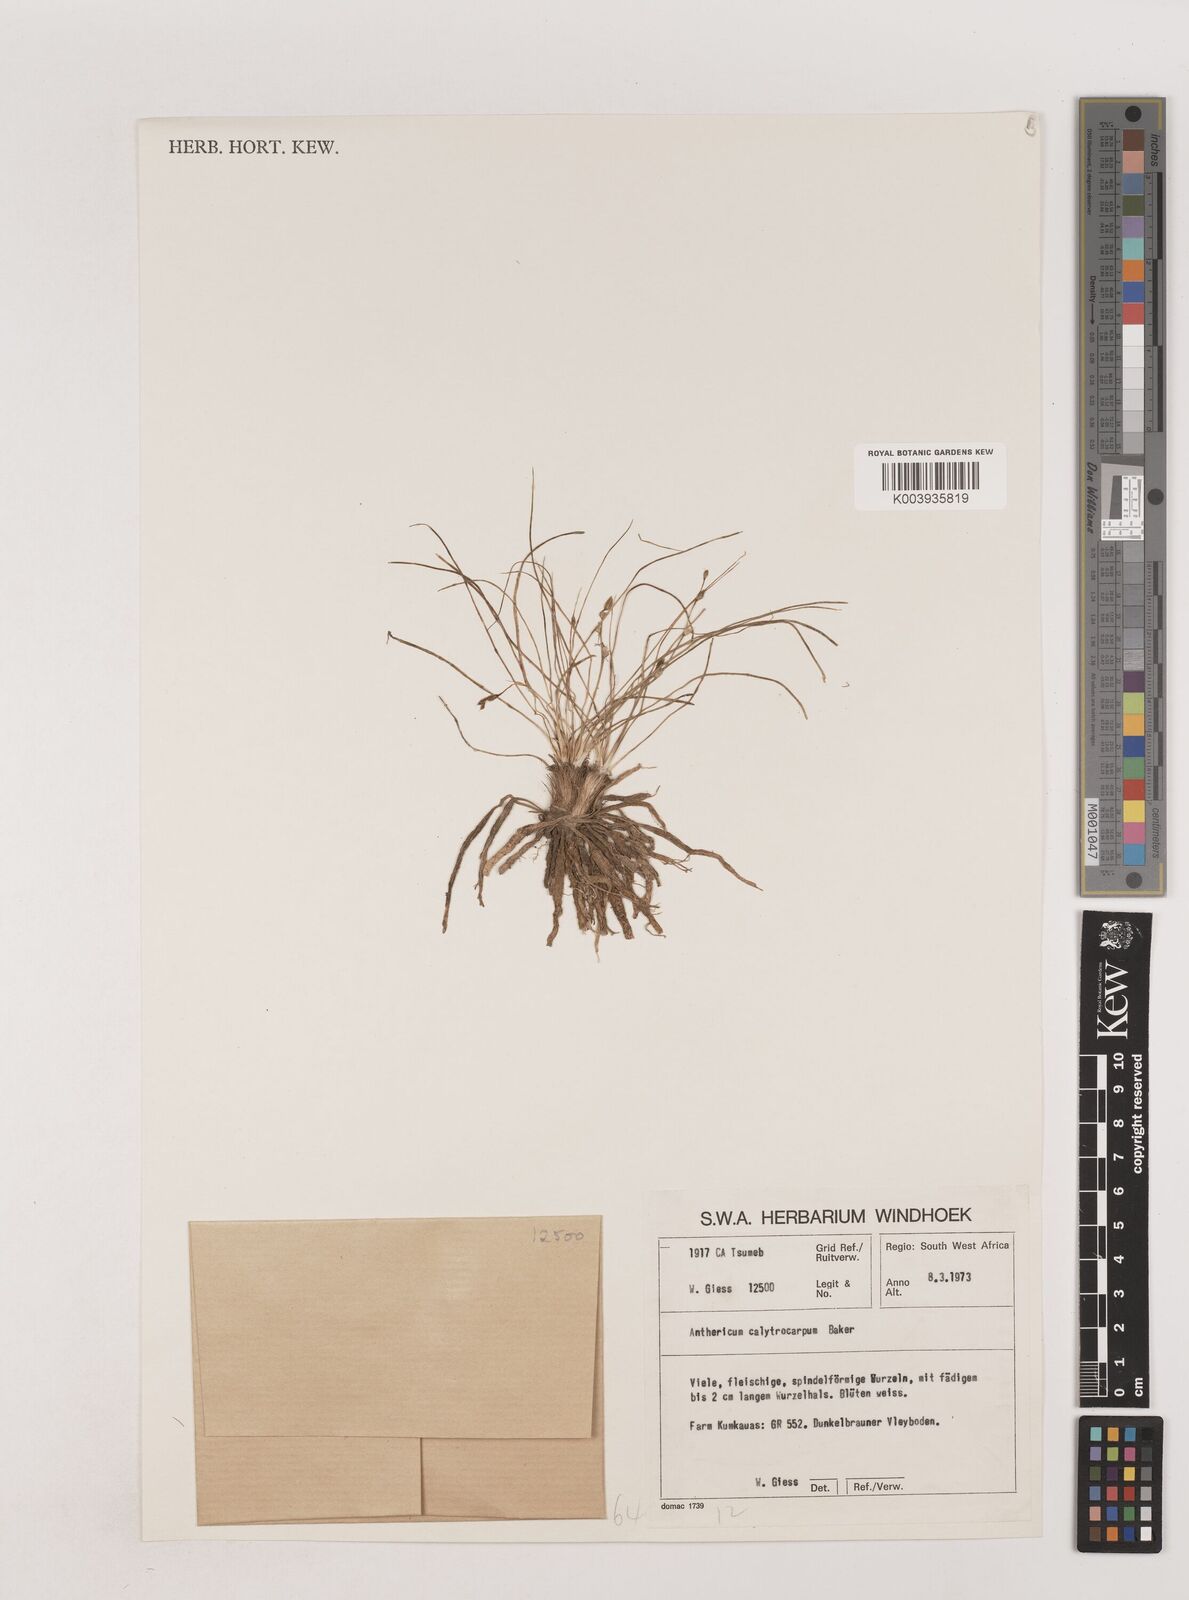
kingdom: Plantae
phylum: Tracheophyta
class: Liliopsida
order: Asparagales
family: Asparagaceae
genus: Chlorophytum
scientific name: Chlorophytum calyptrocarpum
